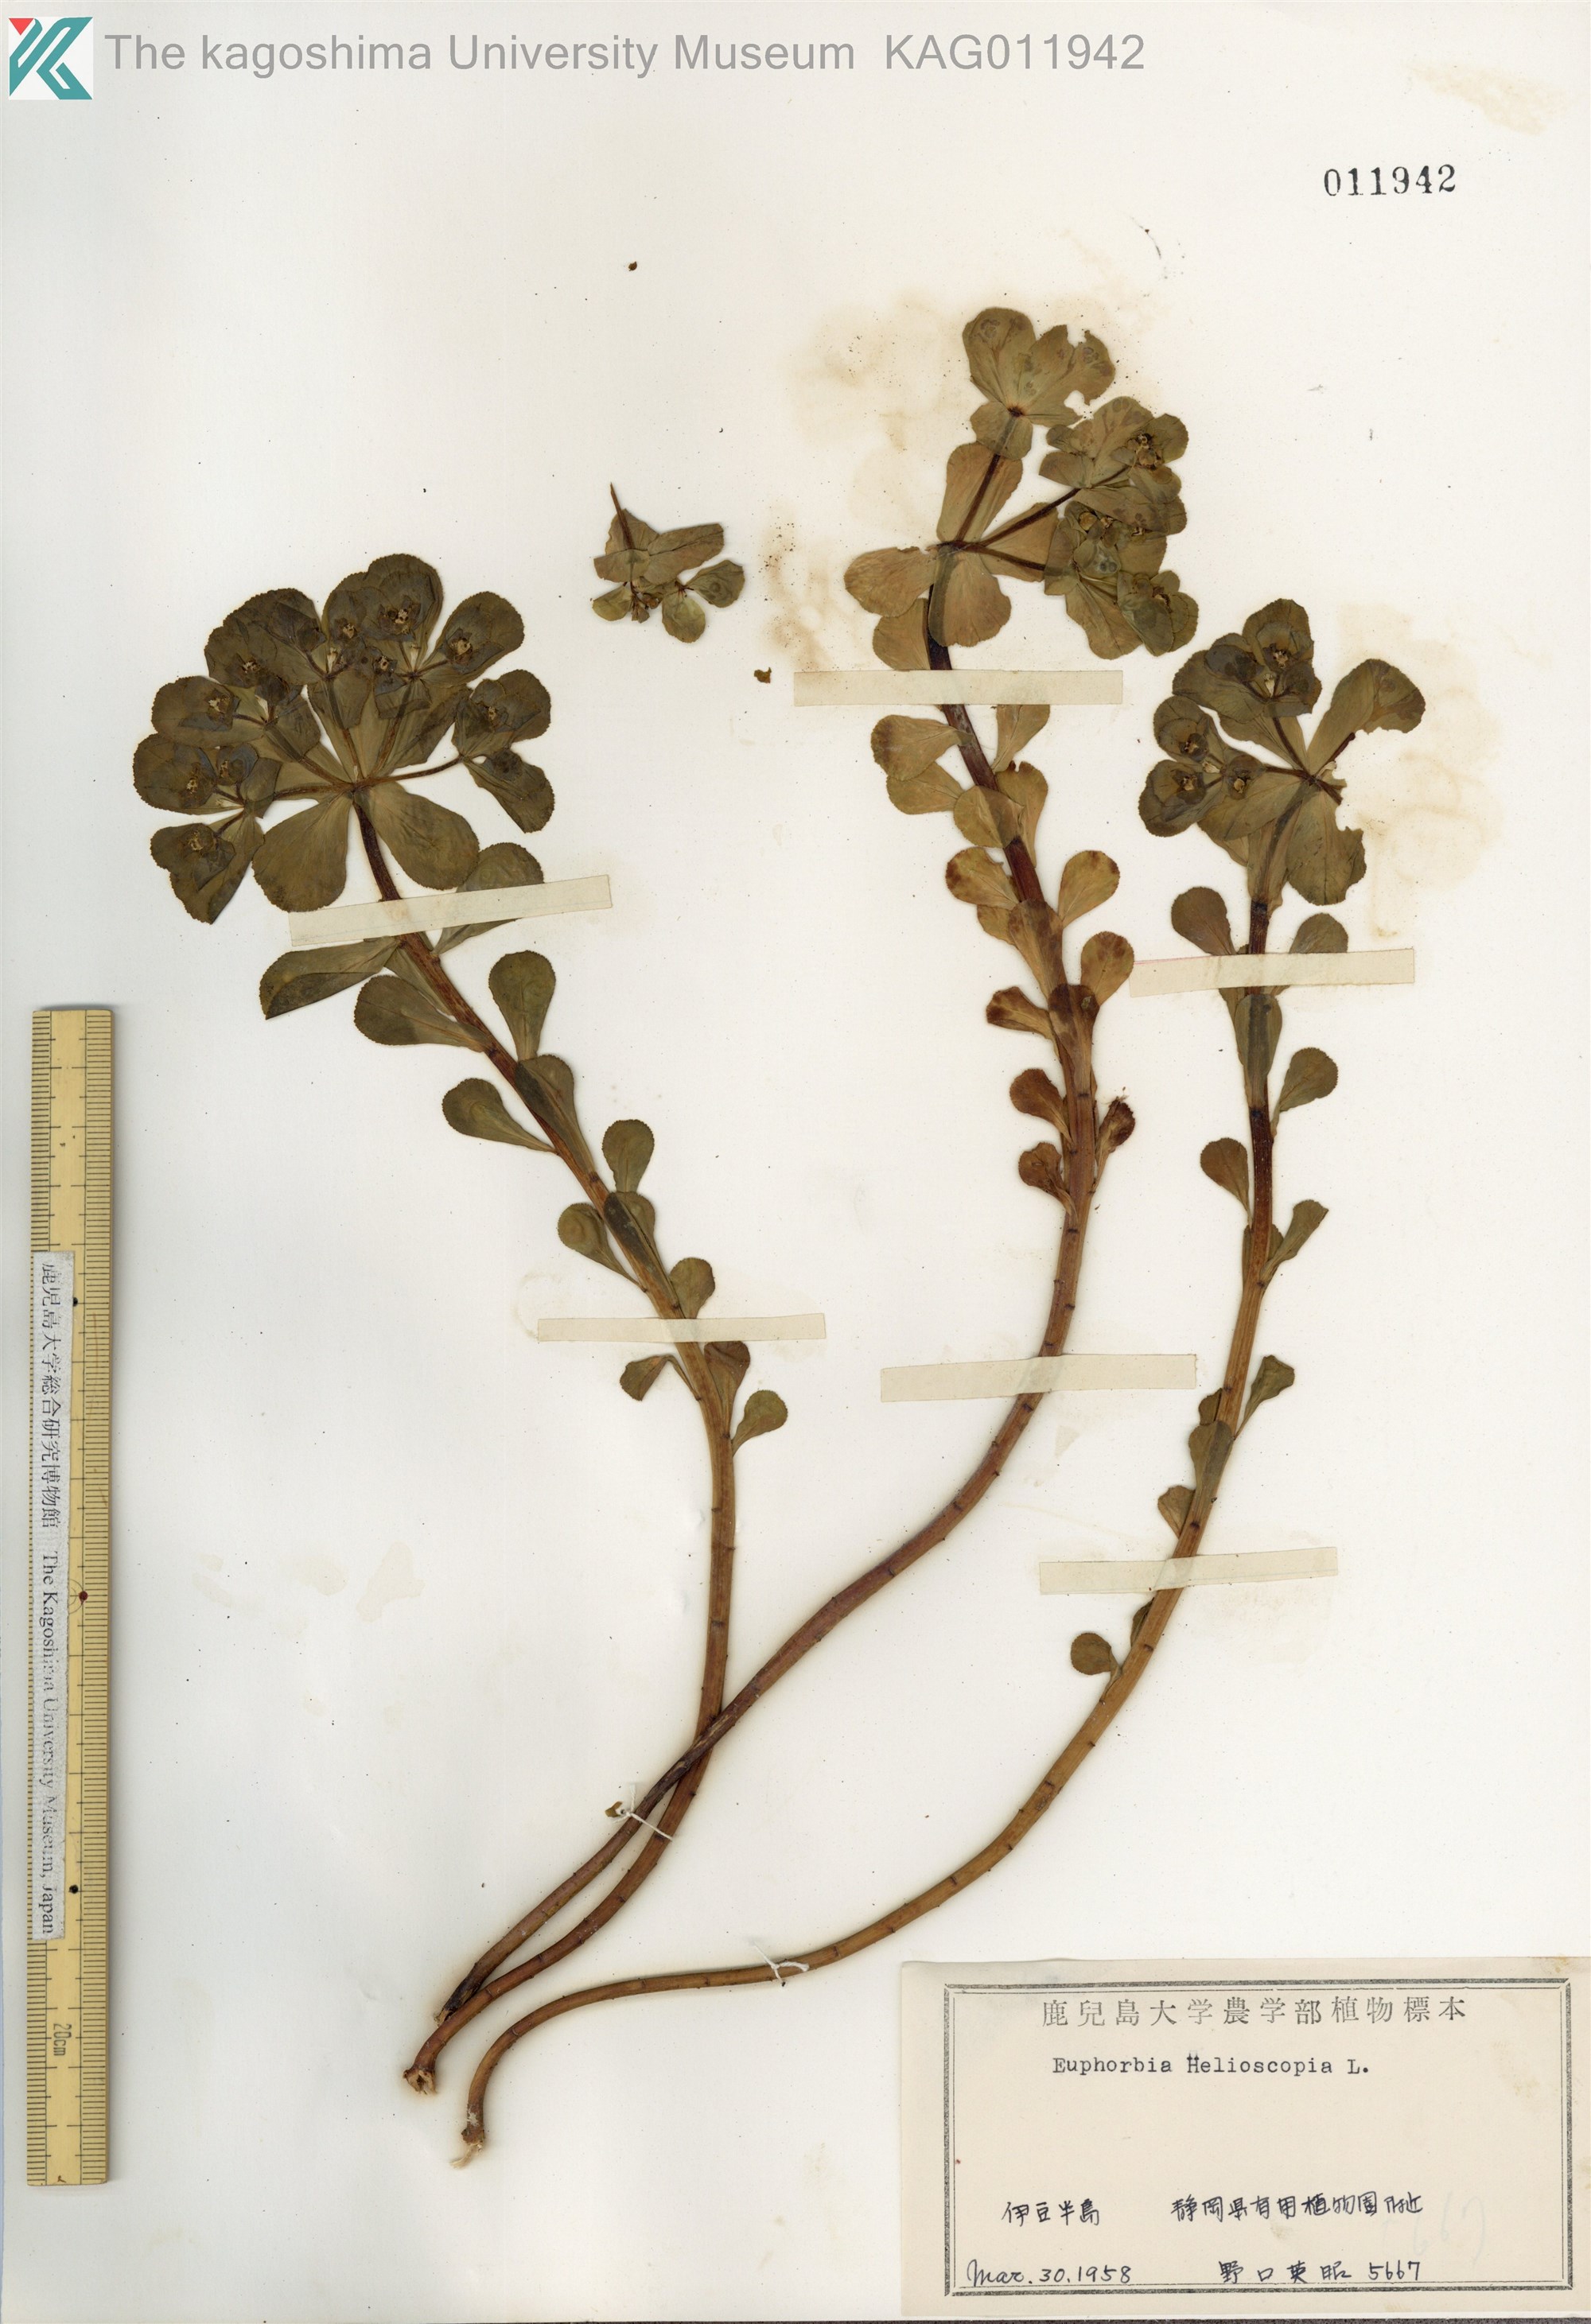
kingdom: Plantae
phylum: Tracheophyta
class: Magnoliopsida
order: Malpighiales
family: Euphorbiaceae
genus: Euphorbia
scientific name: Euphorbia helioscopia
